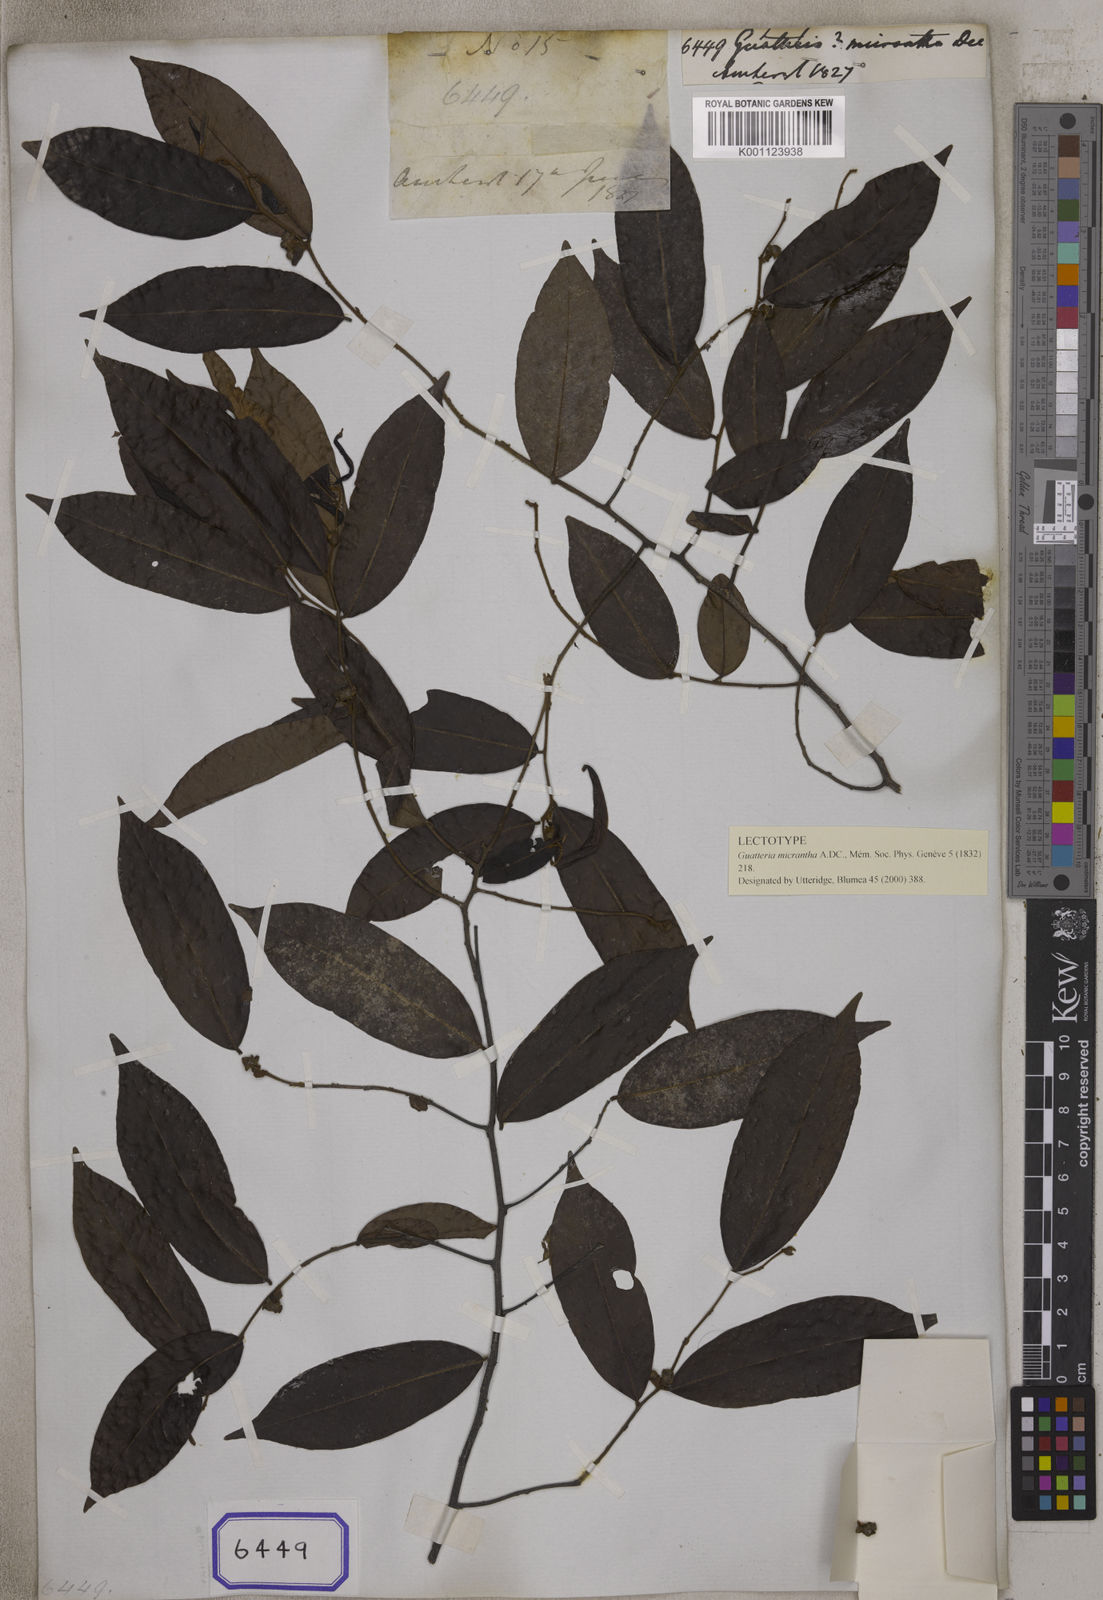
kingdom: Plantae
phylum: Tracheophyta
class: Magnoliopsida
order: Magnoliales
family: Annonaceae
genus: Uvaria
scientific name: Uvaria micrantha
